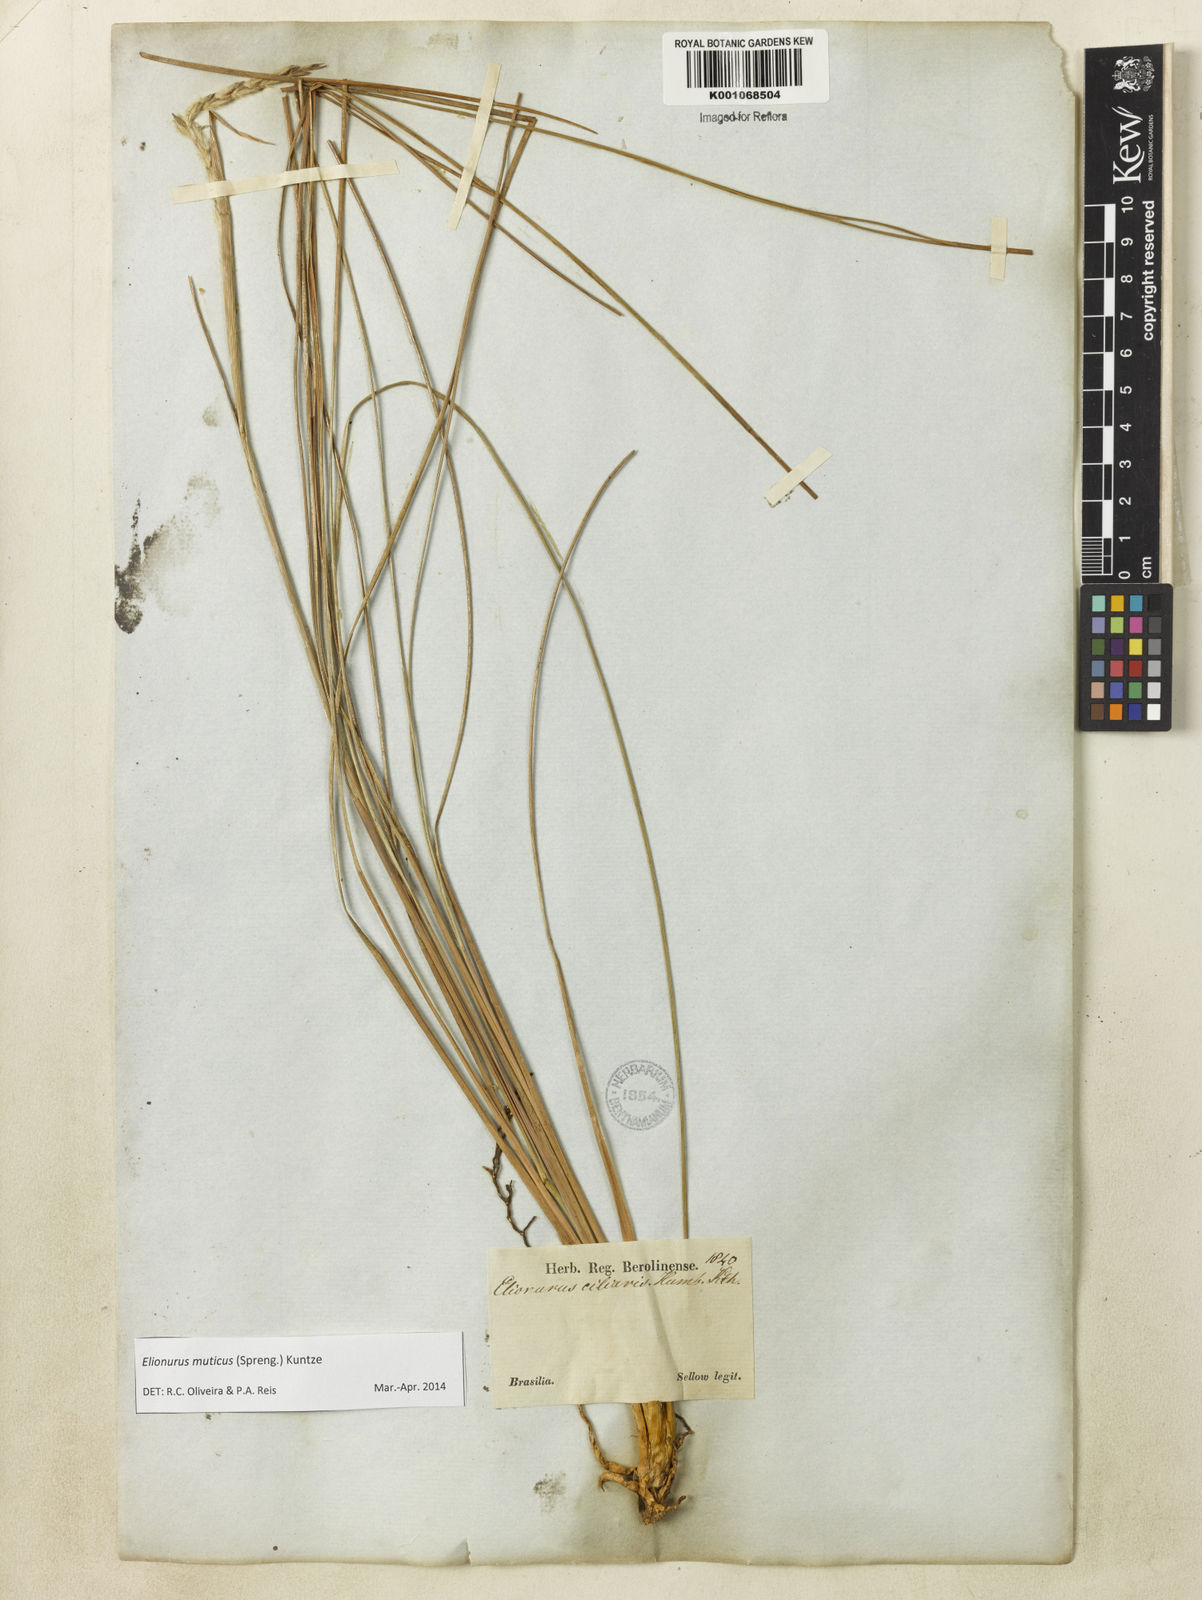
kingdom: Plantae
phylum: Tracheophyta
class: Liliopsida
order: Poales
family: Poaceae
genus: Elionurus
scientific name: Elionurus muticus
